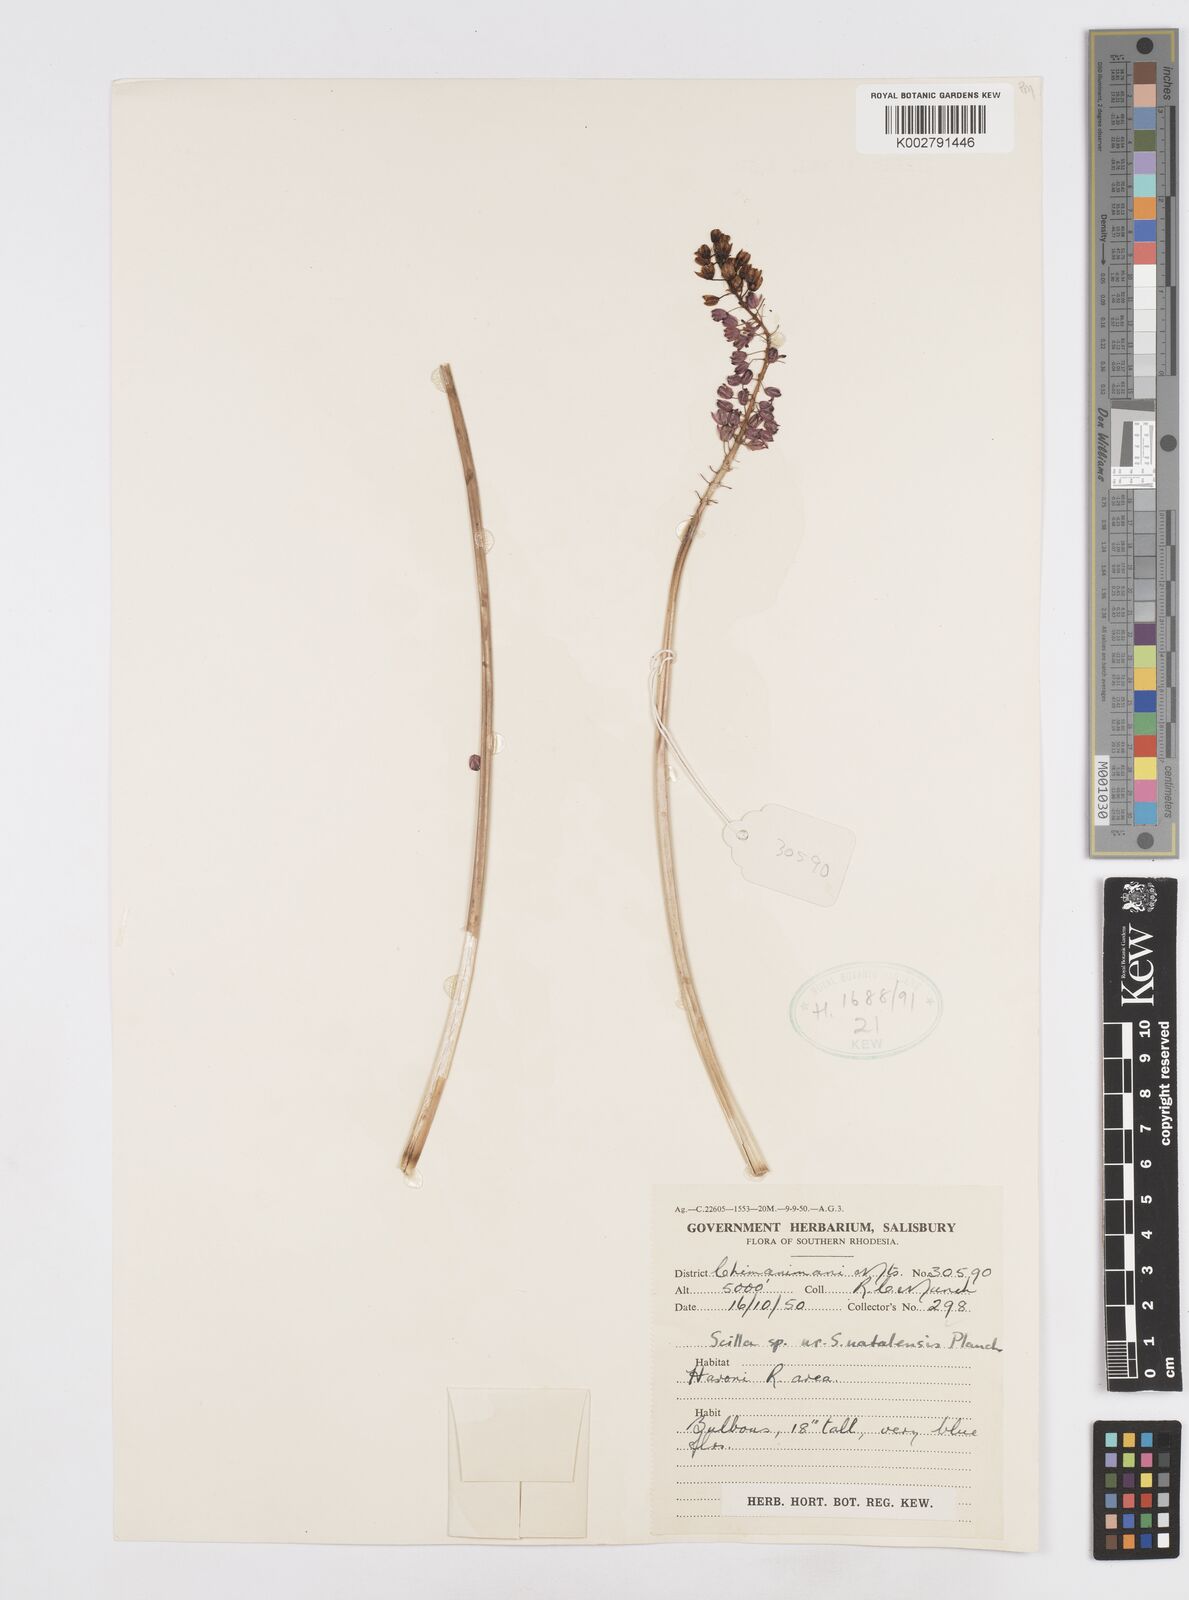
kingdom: Plantae
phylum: Tracheophyta
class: Liliopsida
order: Asparagales
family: Asparagaceae
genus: Merwilla
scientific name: Merwilla plumbea
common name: Blue-squill
